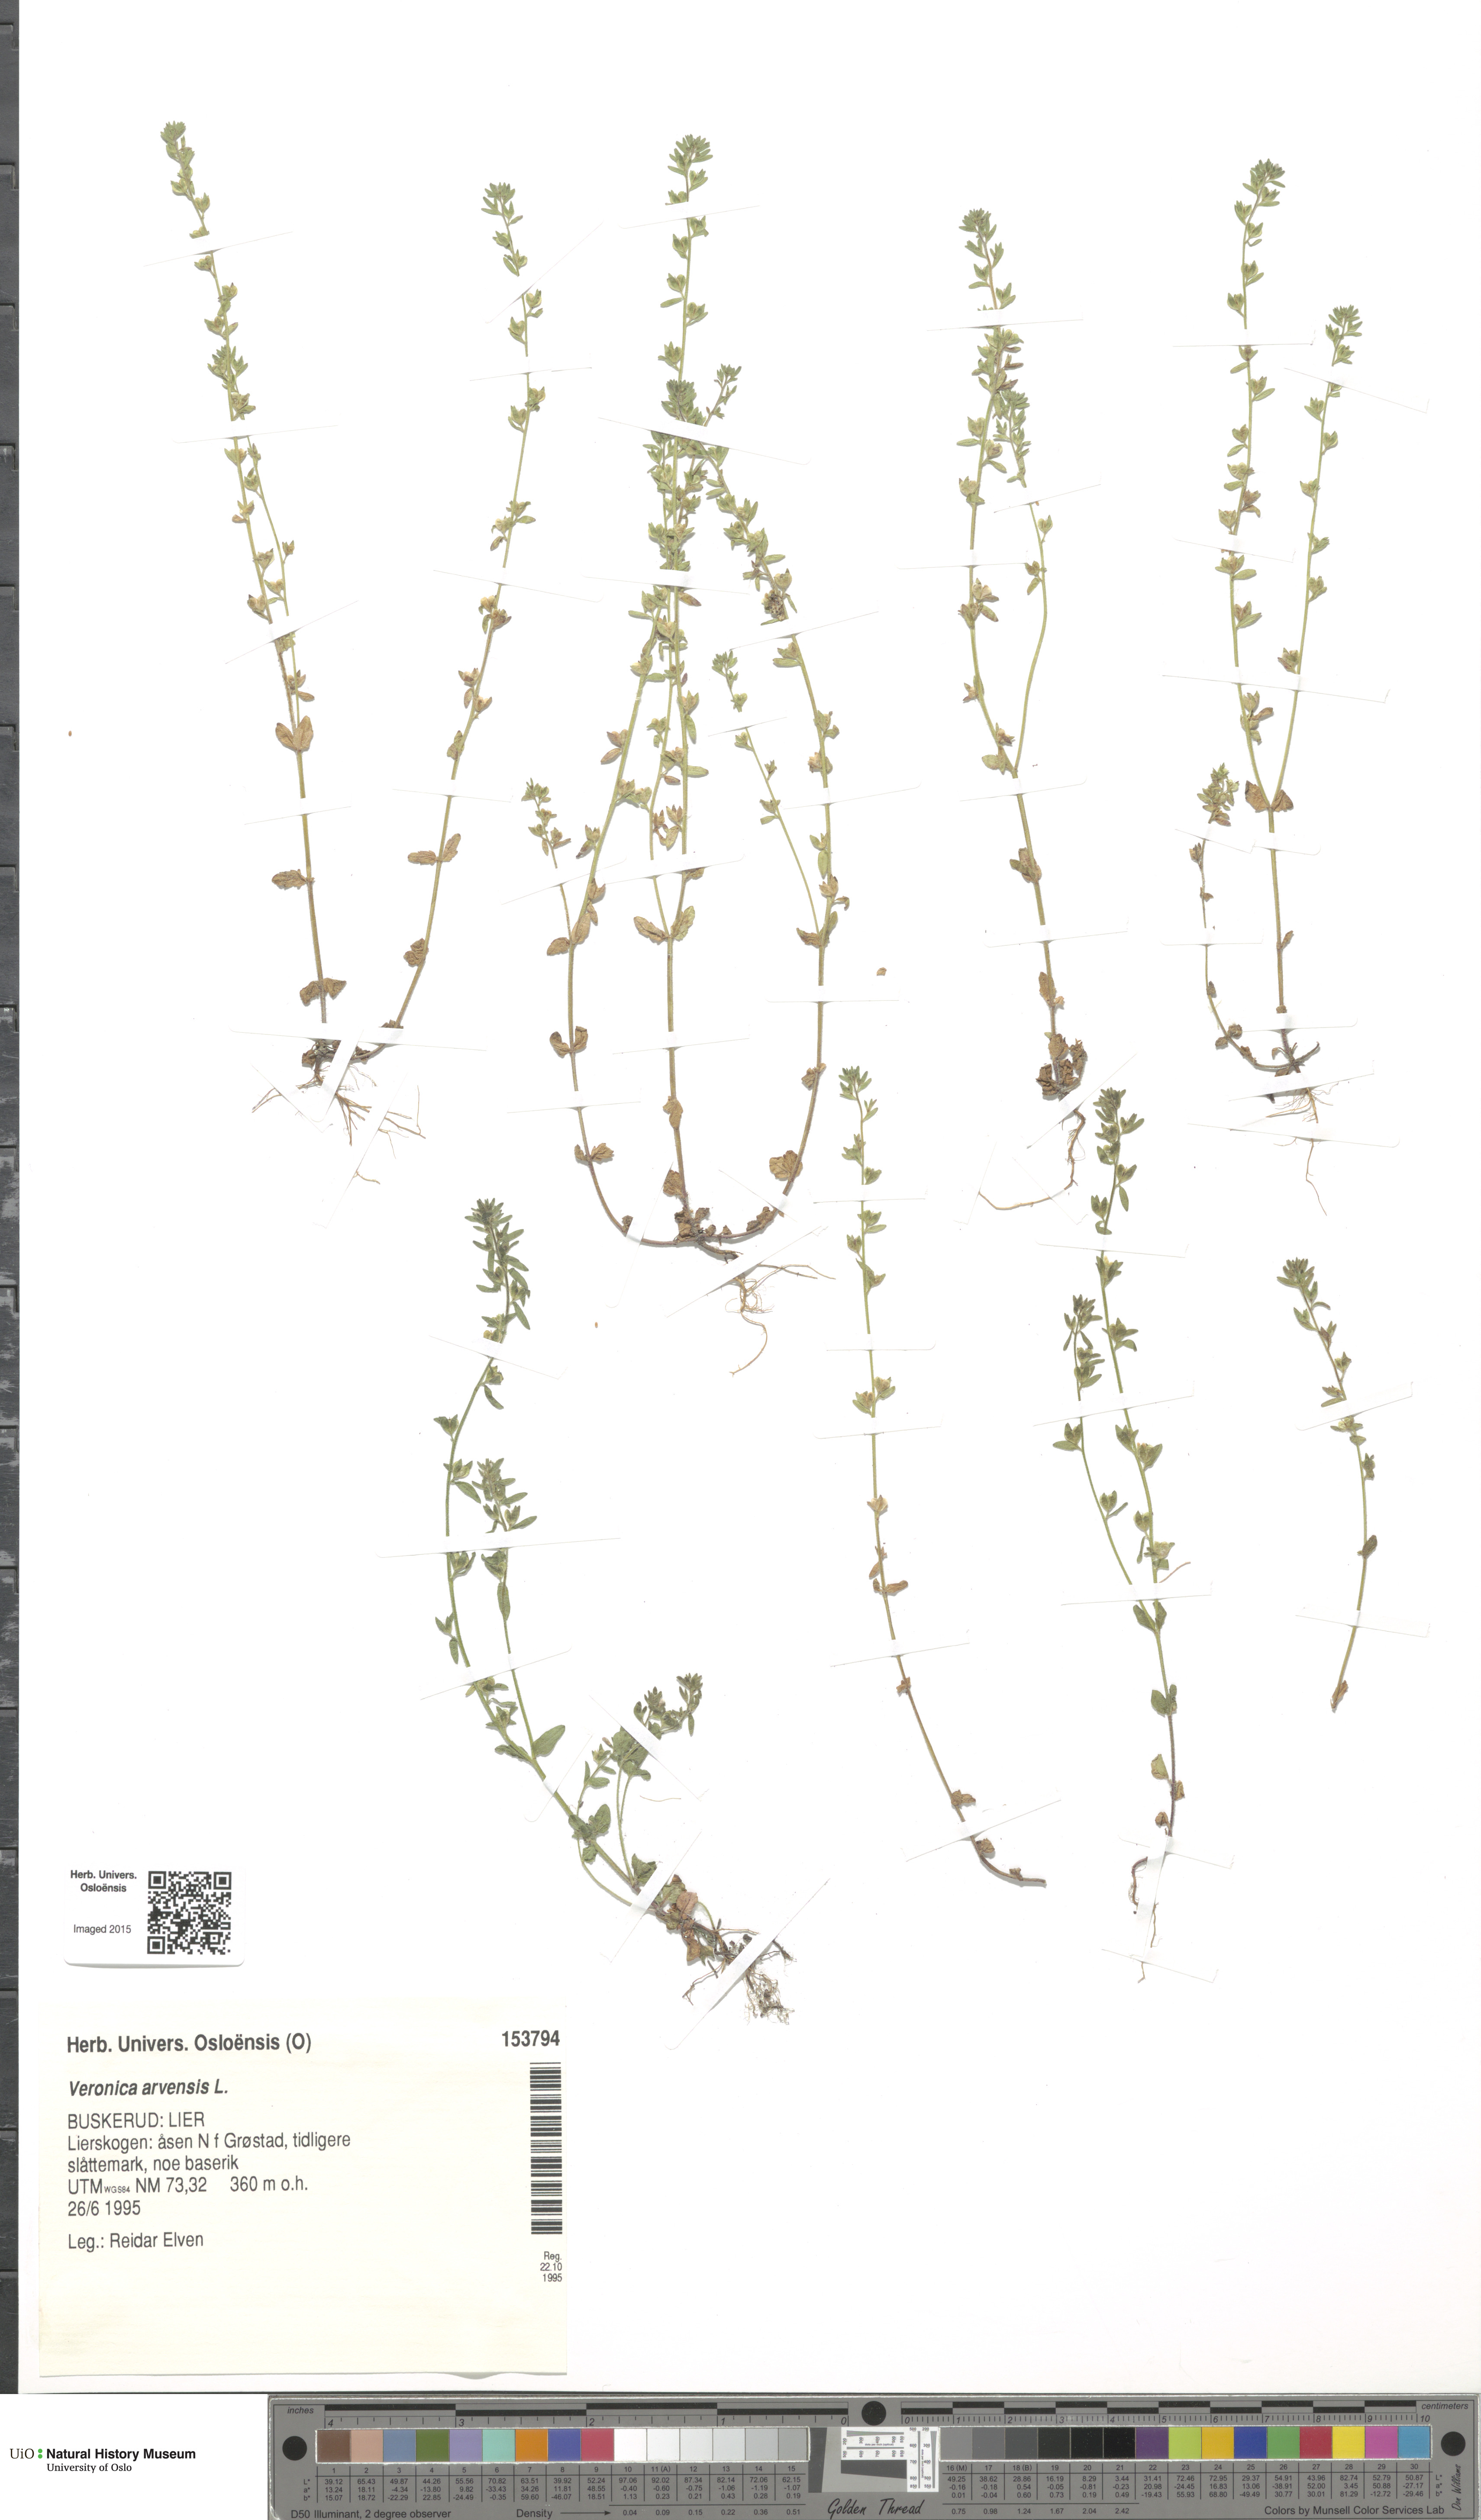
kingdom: Plantae
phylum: Tracheophyta
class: Magnoliopsida
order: Lamiales
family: Plantaginaceae
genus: Veronica
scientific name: Veronica arvensis
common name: Corn speedwell
